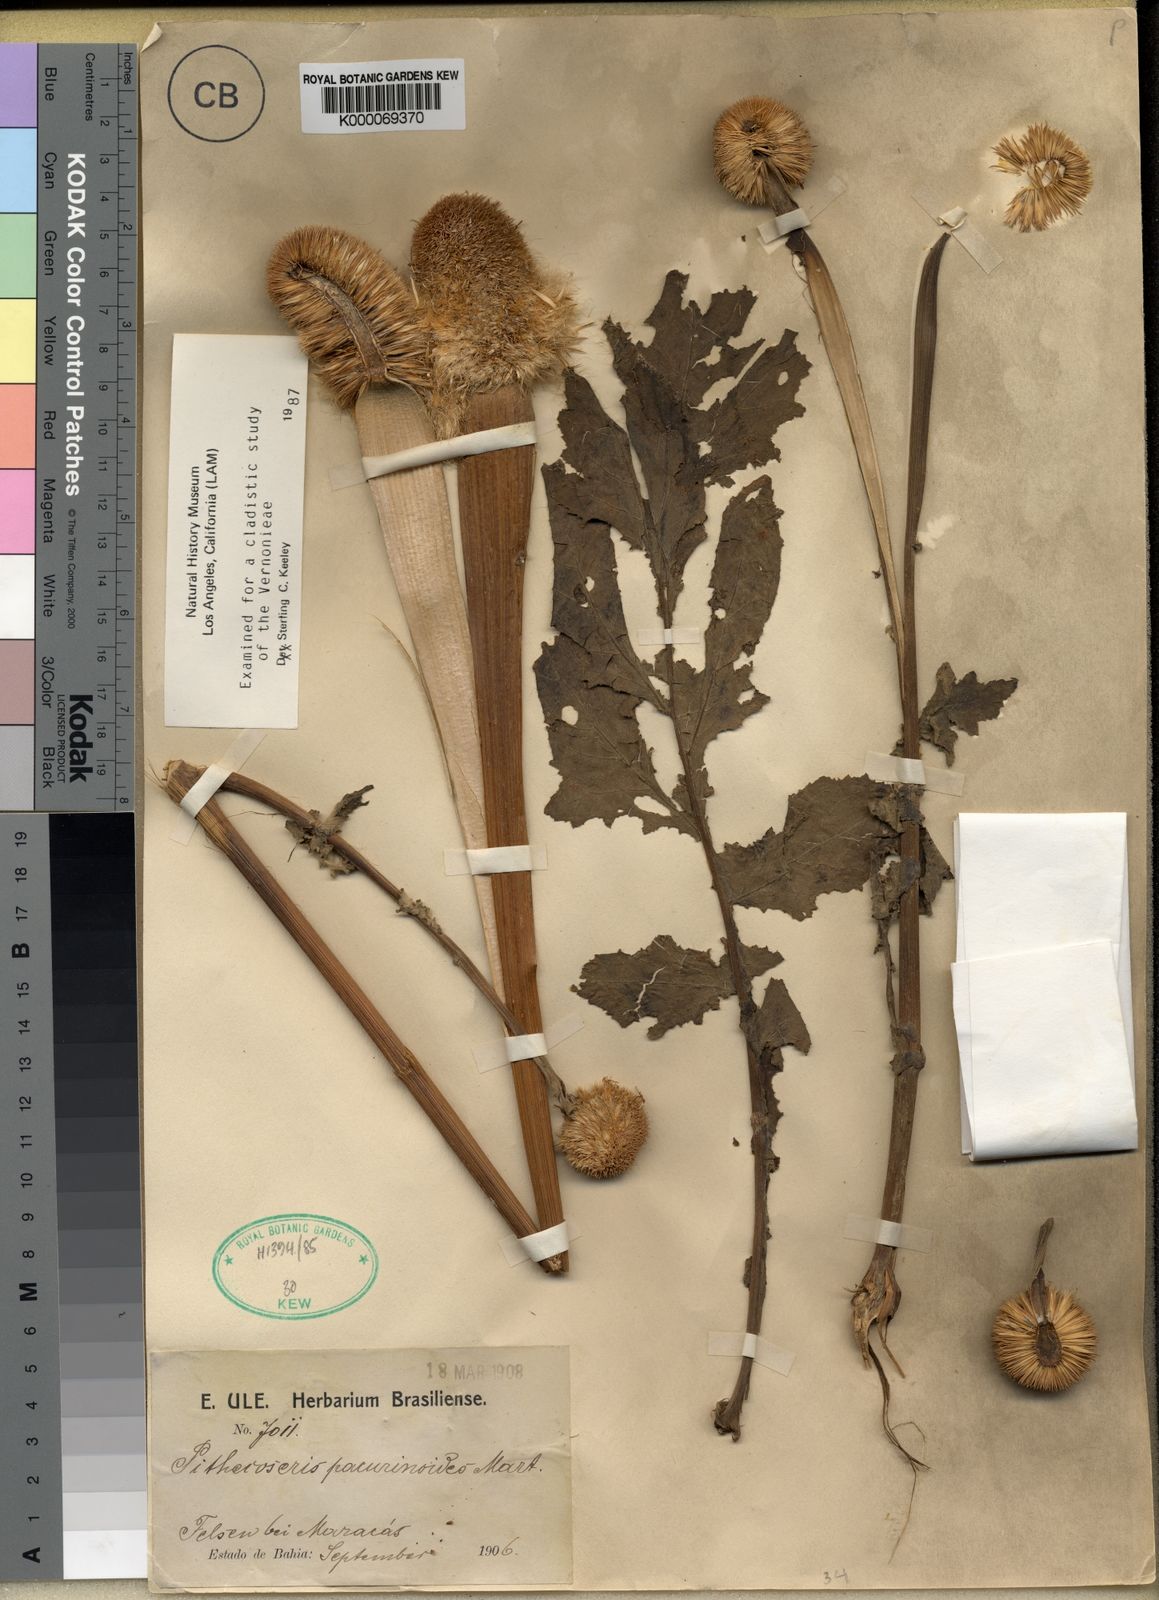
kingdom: Plantae
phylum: Tracheophyta
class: Magnoliopsida
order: Asterales
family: Asteraceae
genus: Chresta
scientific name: Chresta pacourinoides
